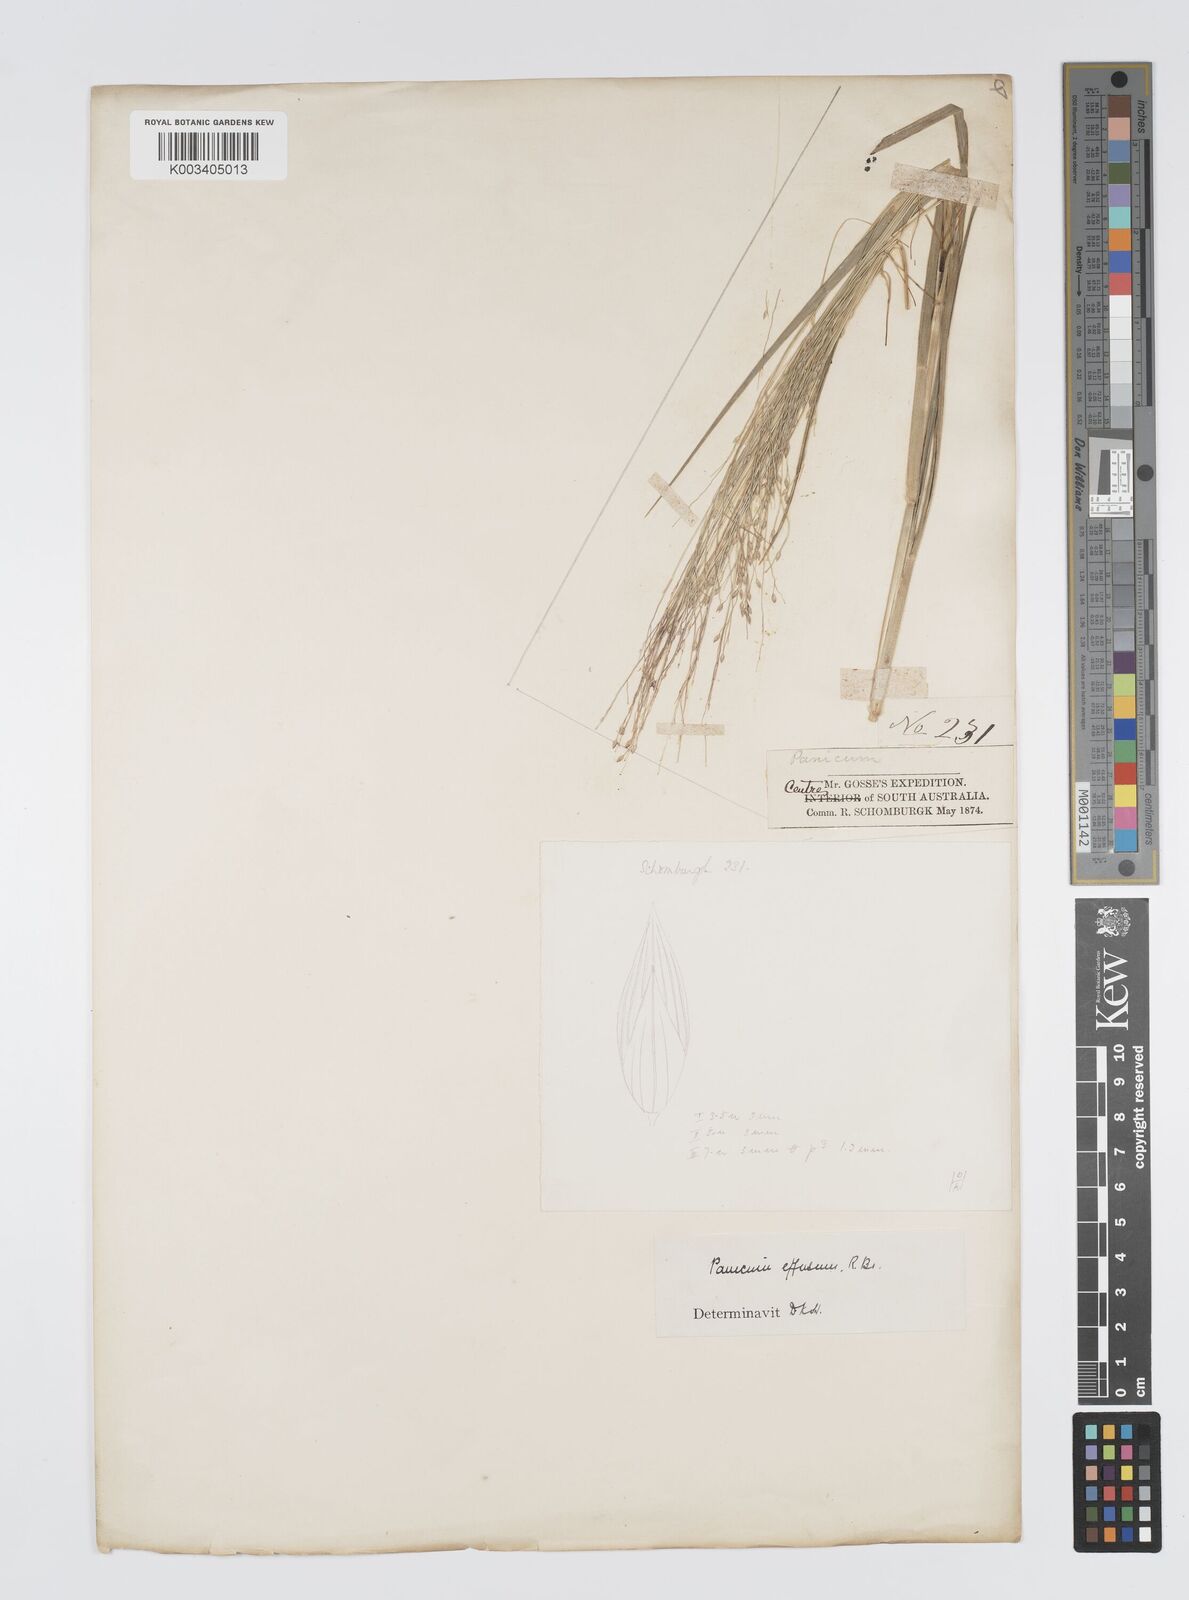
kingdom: Plantae
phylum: Tracheophyta
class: Liliopsida
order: Poales
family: Poaceae
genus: Panicum
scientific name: Panicum effusum
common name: Hairy panic grass
